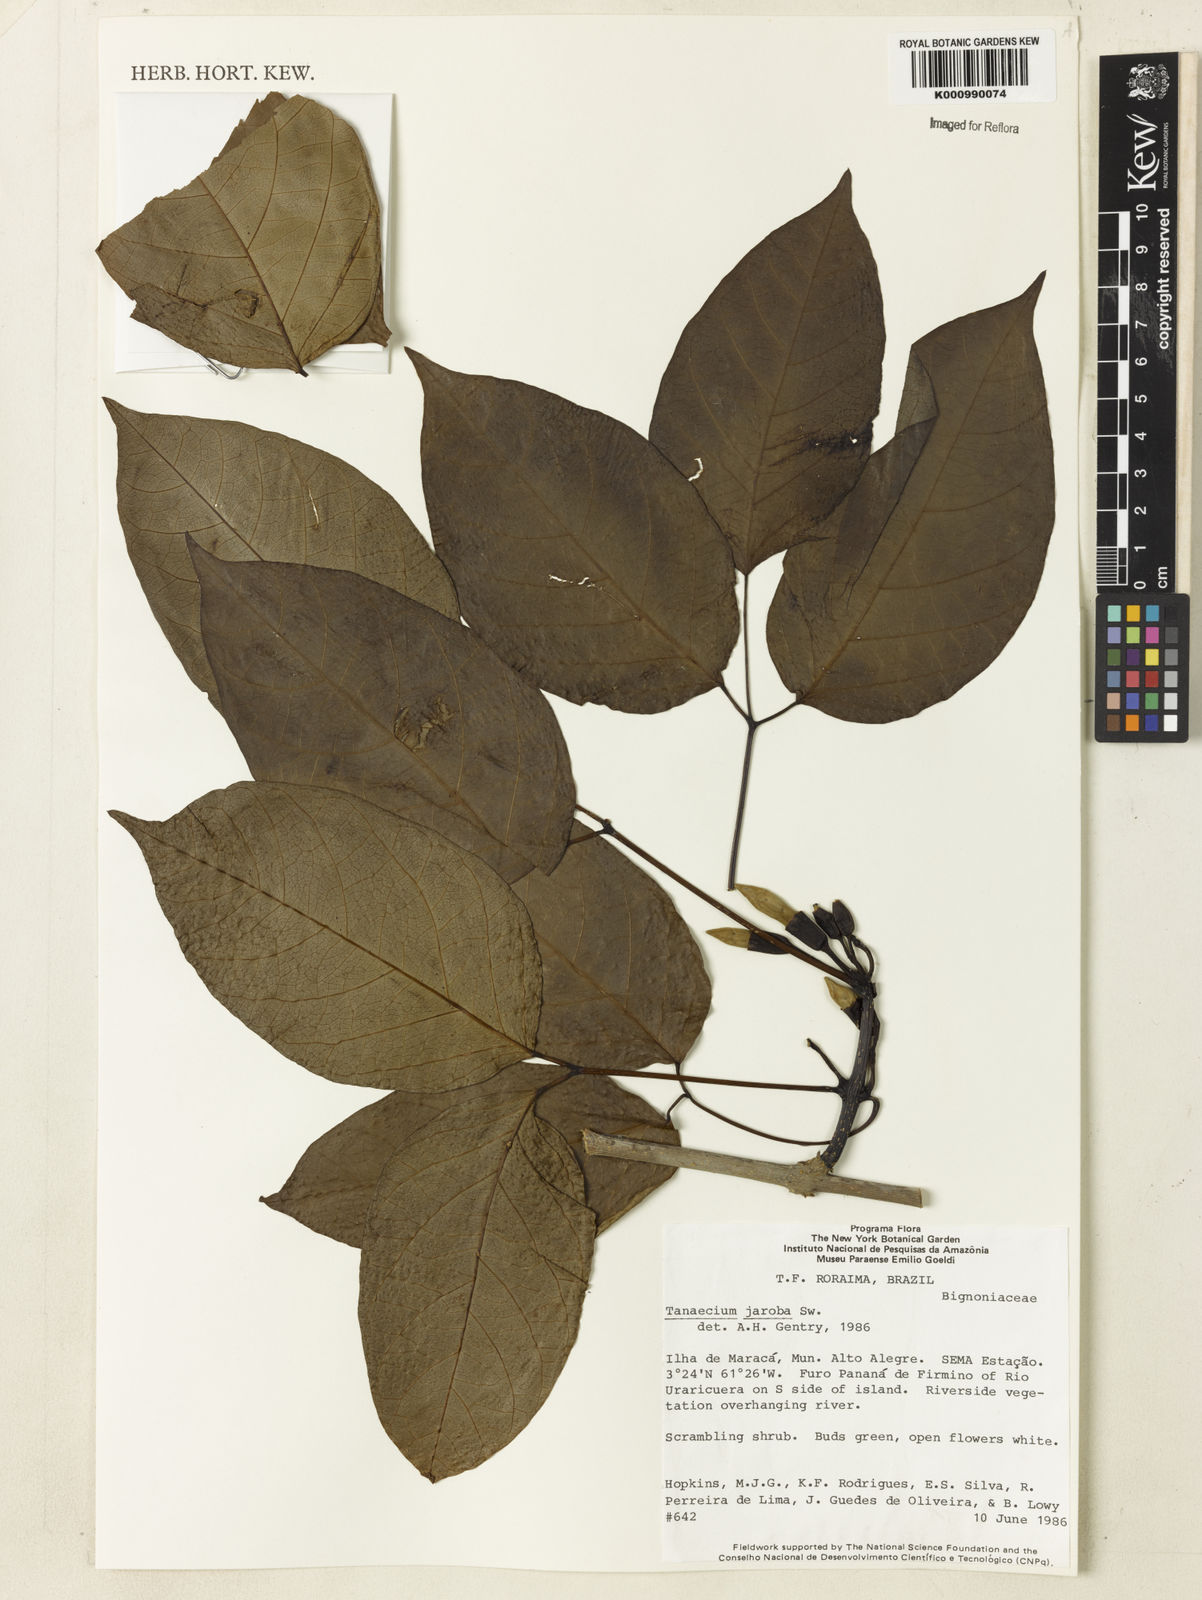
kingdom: Plantae
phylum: Tracheophyta
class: Magnoliopsida
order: Lamiales
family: Bignoniaceae
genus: Tanaecium
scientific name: Tanaecium jaroba
